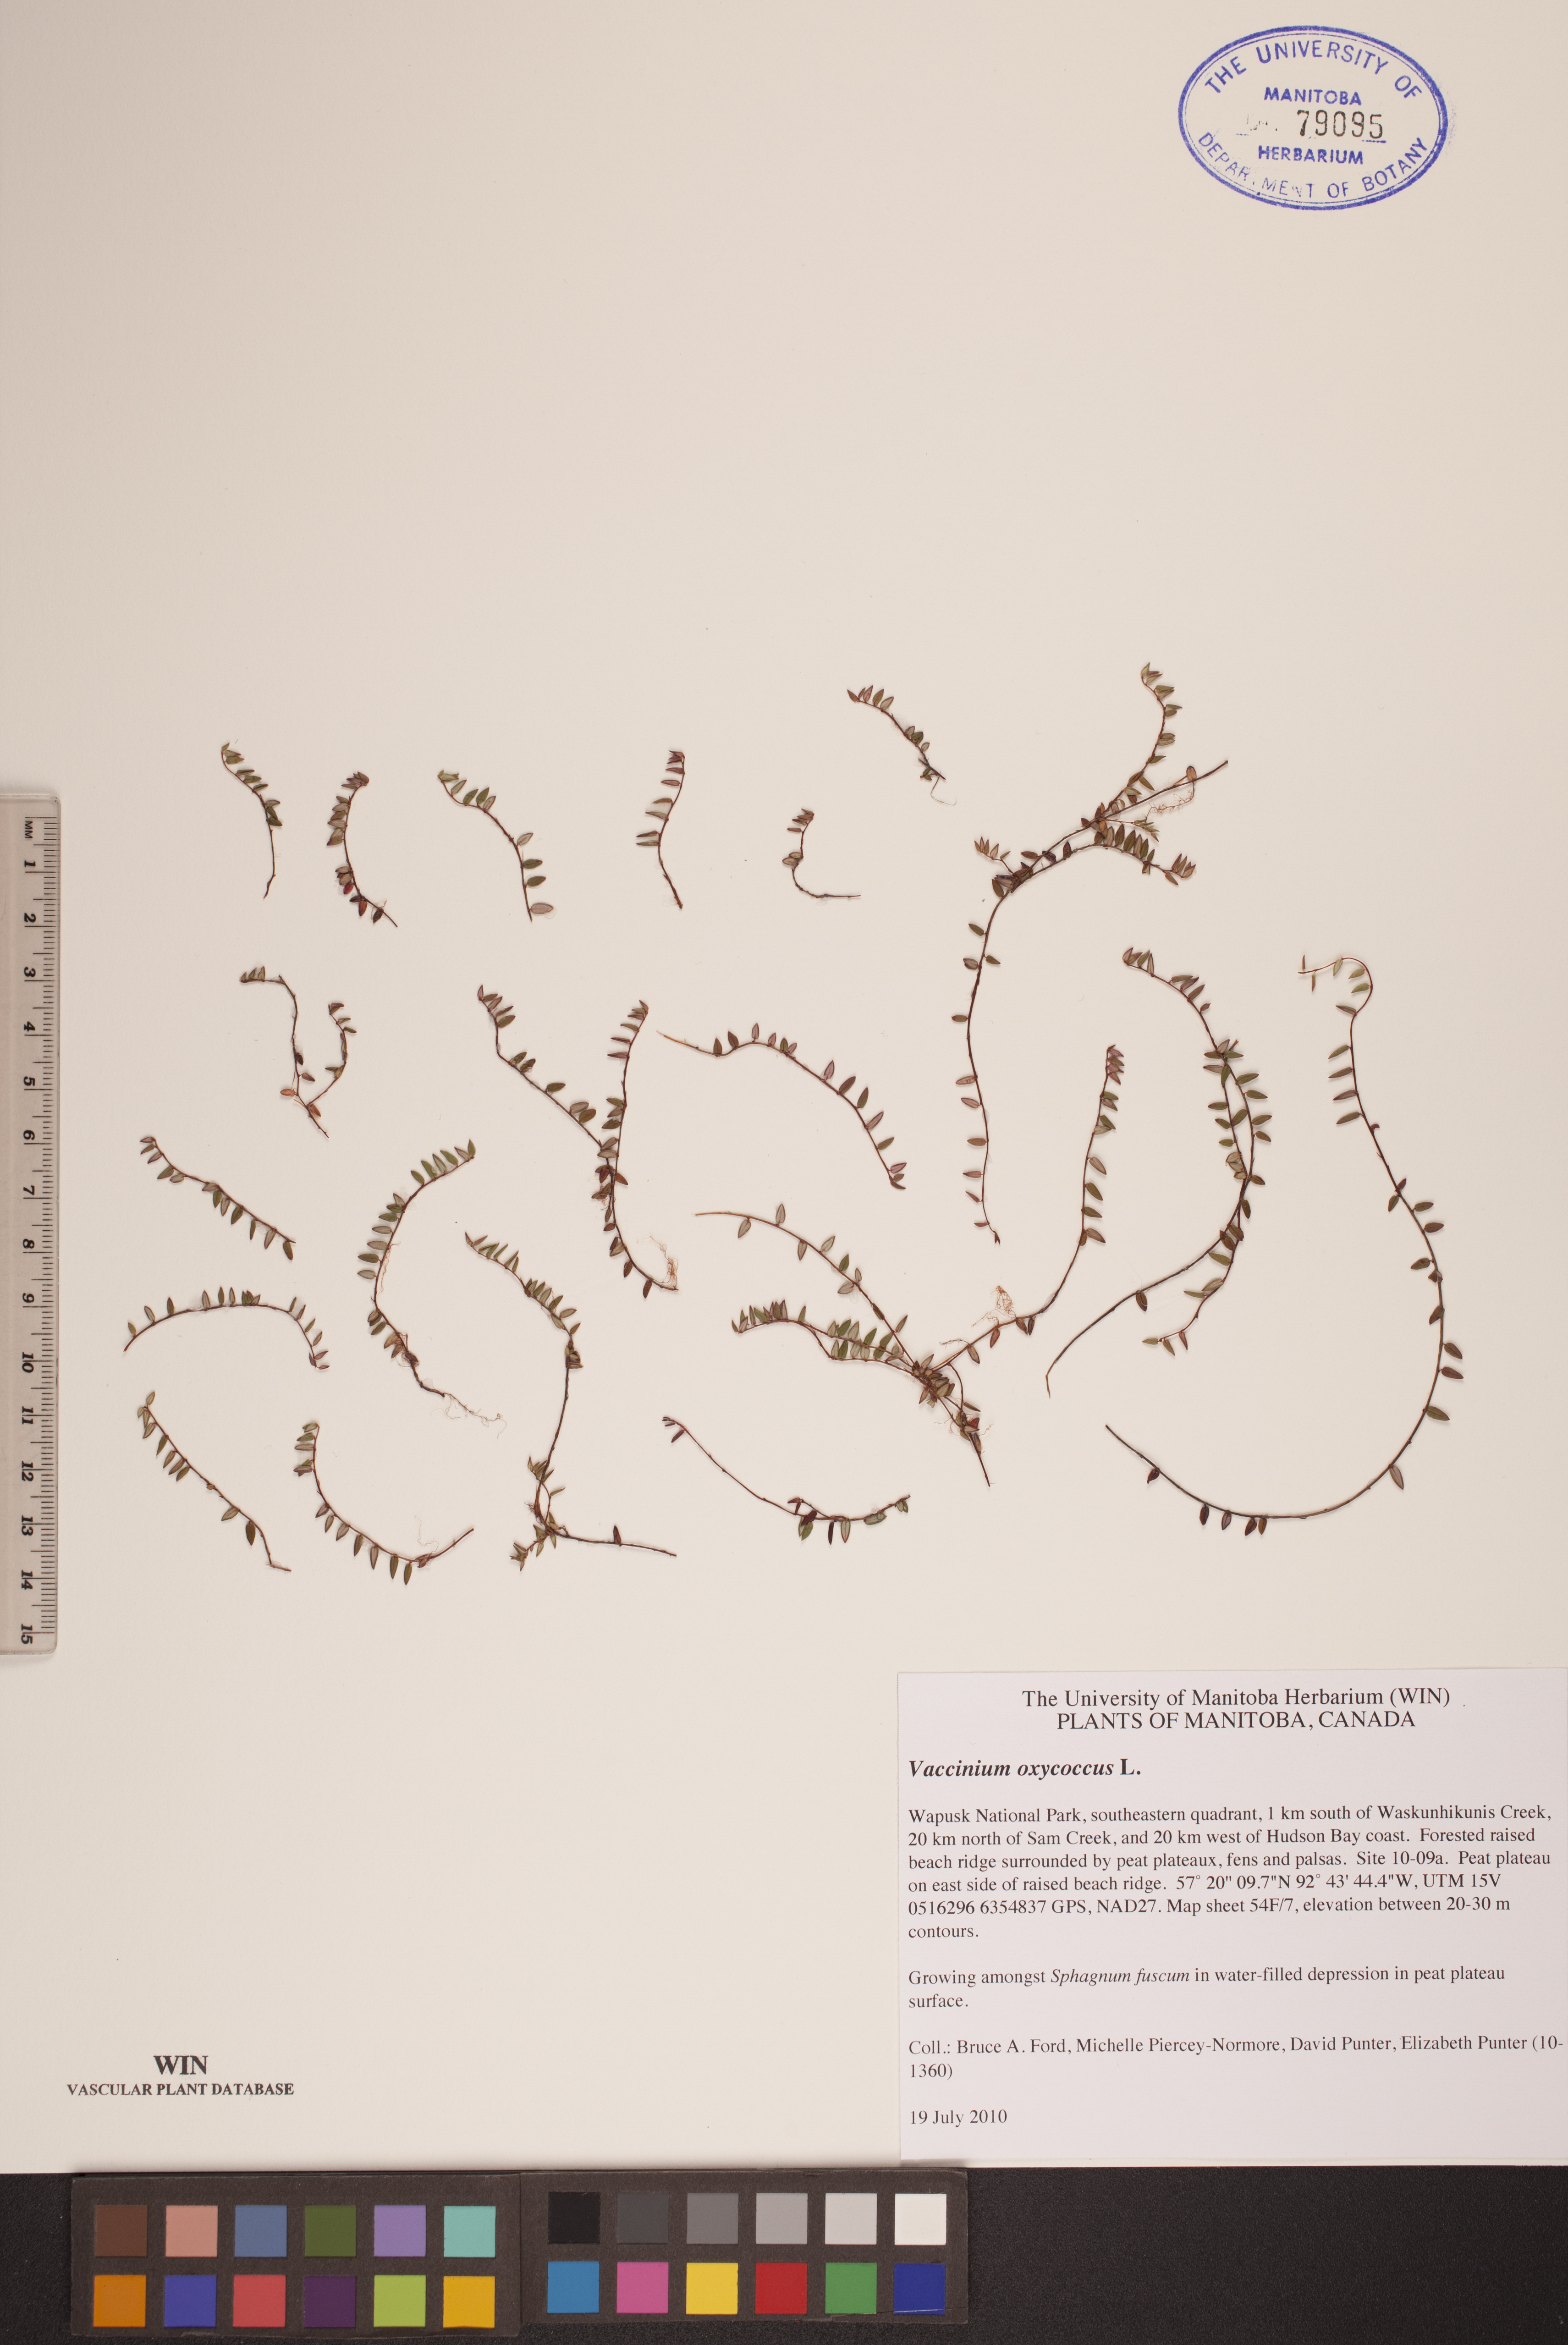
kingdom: Plantae
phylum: Tracheophyta
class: Magnoliopsida
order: Ericales
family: Ericaceae
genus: Vaccinium
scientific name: Vaccinium oxycoccos
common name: Cranberry
